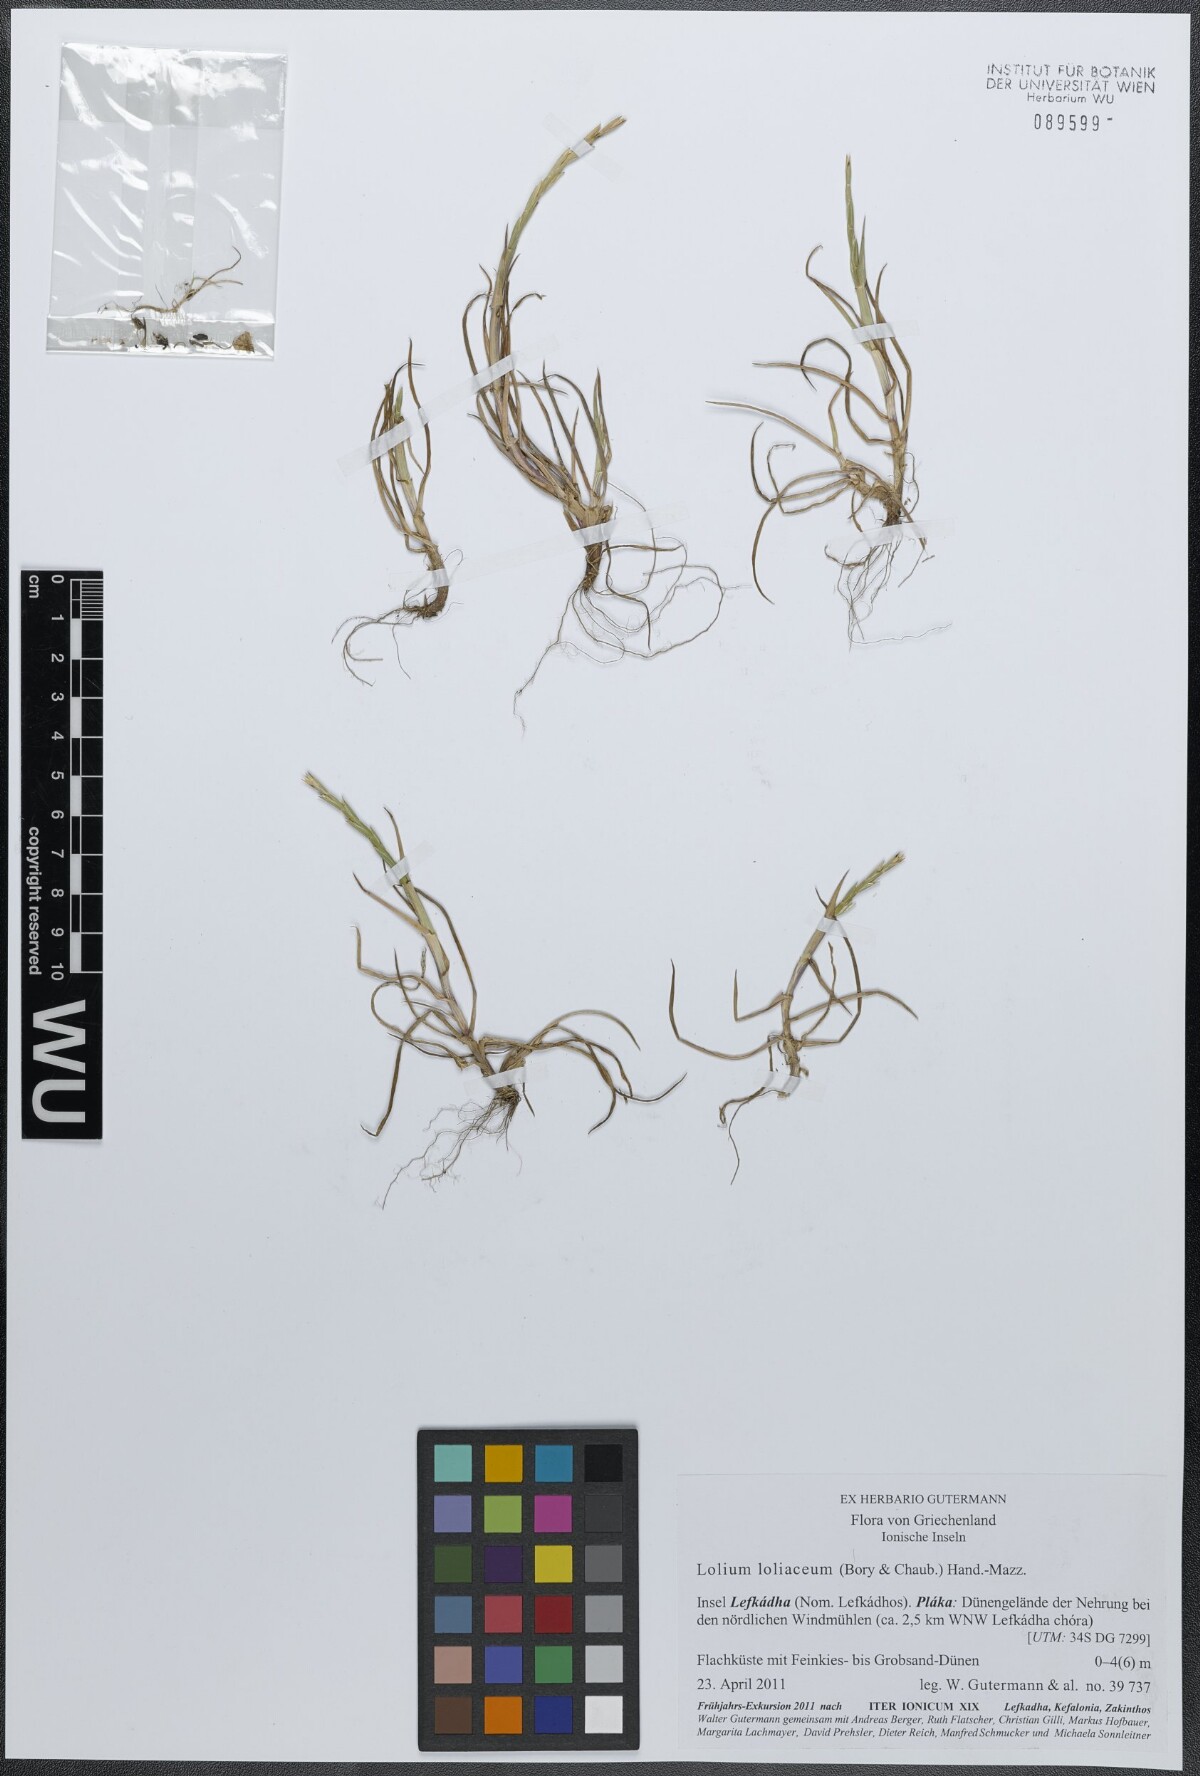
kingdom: Plantae
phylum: Tracheophyta
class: Liliopsida
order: Poales
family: Poaceae
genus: Lolium
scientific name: Lolium rigidum
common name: Wimmera ryegrass
